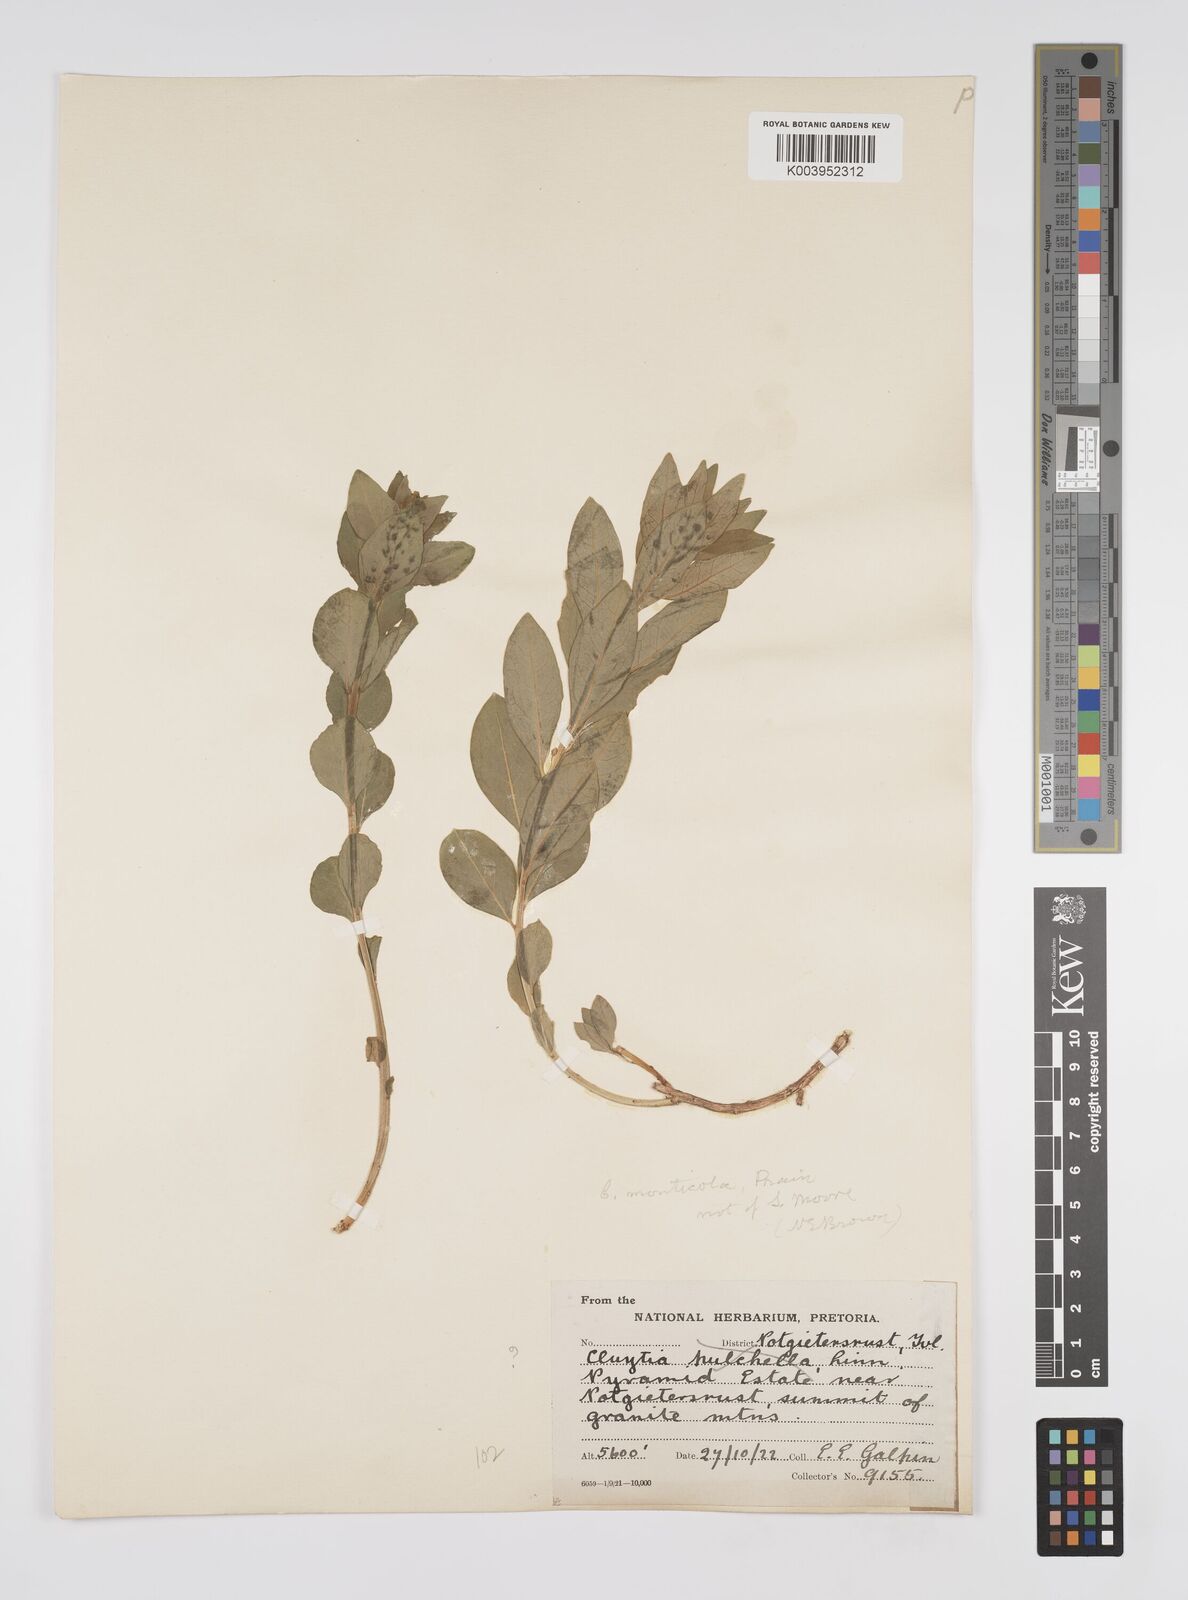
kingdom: Plantae
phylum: Tracheophyta
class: Magnoliopsida
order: Malpighiales
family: Peraceae
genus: Clutia
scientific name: Clutia
